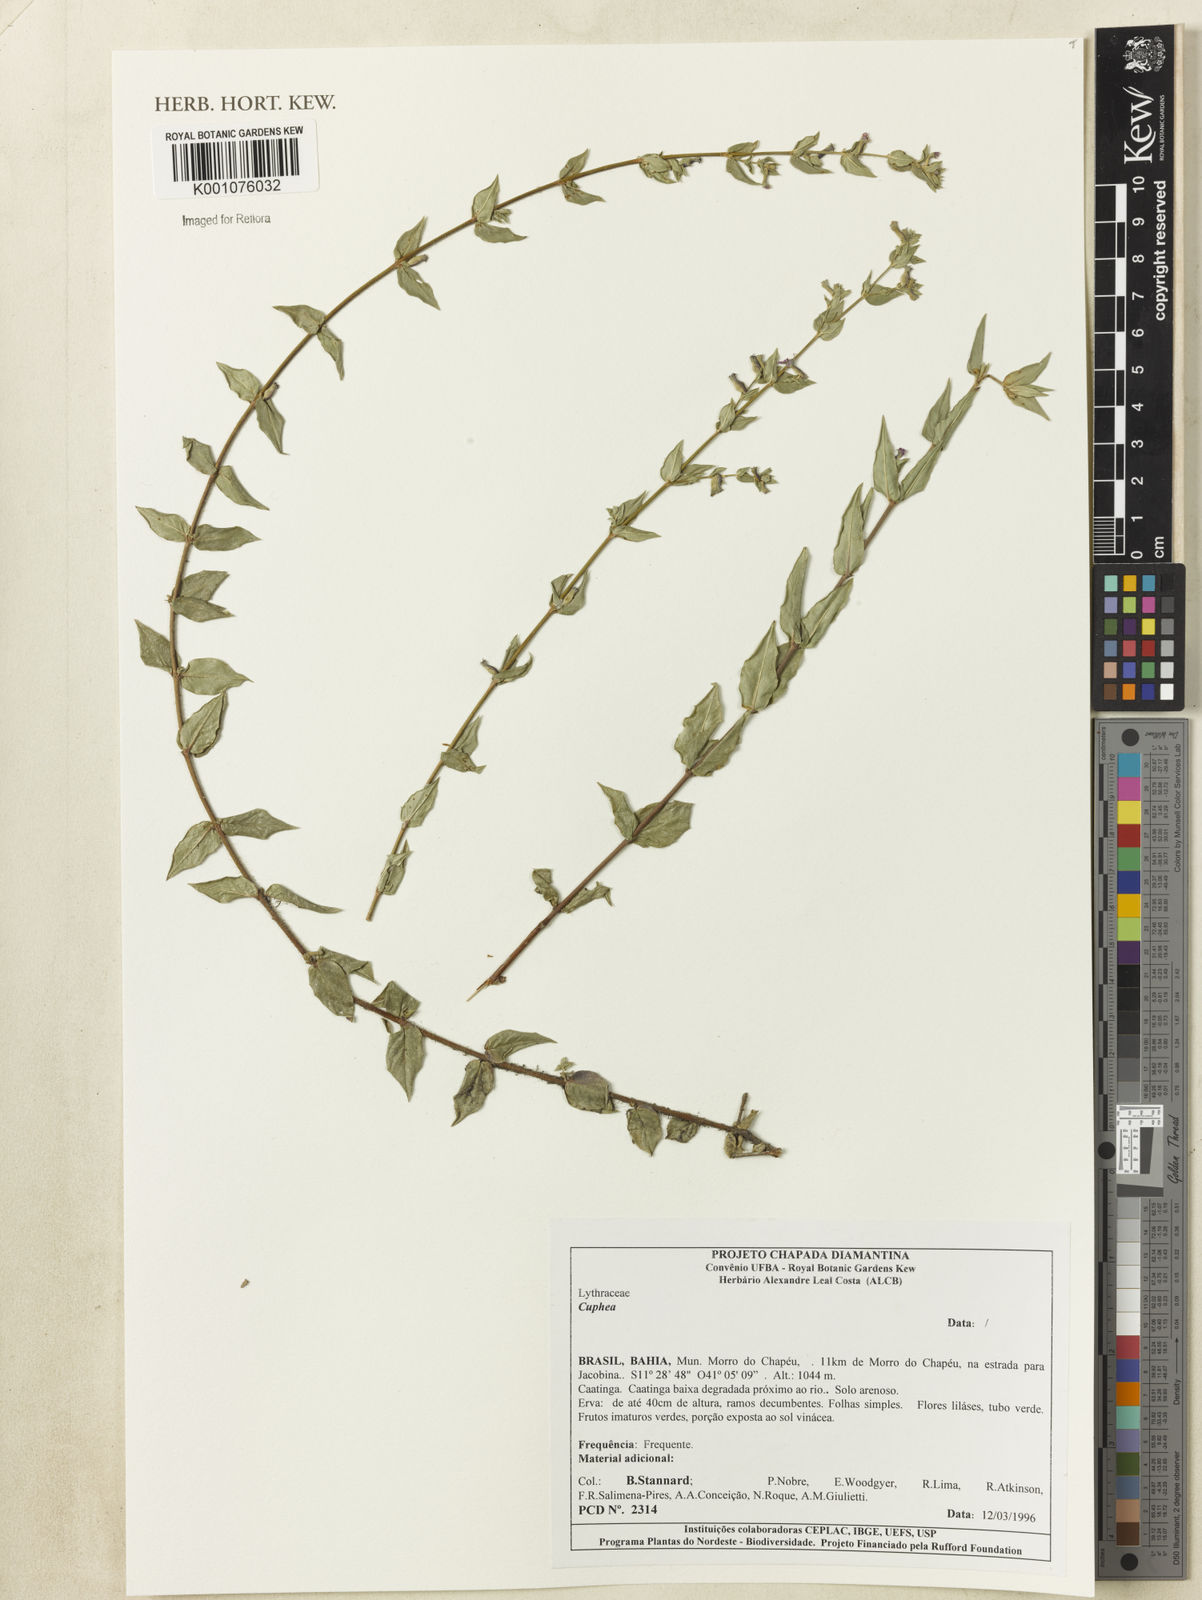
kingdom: Plantae
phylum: Tracheophyta
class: Magnoliopsida
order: Myrtales
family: Lythraceae
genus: Cuphea
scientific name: Cuphea
